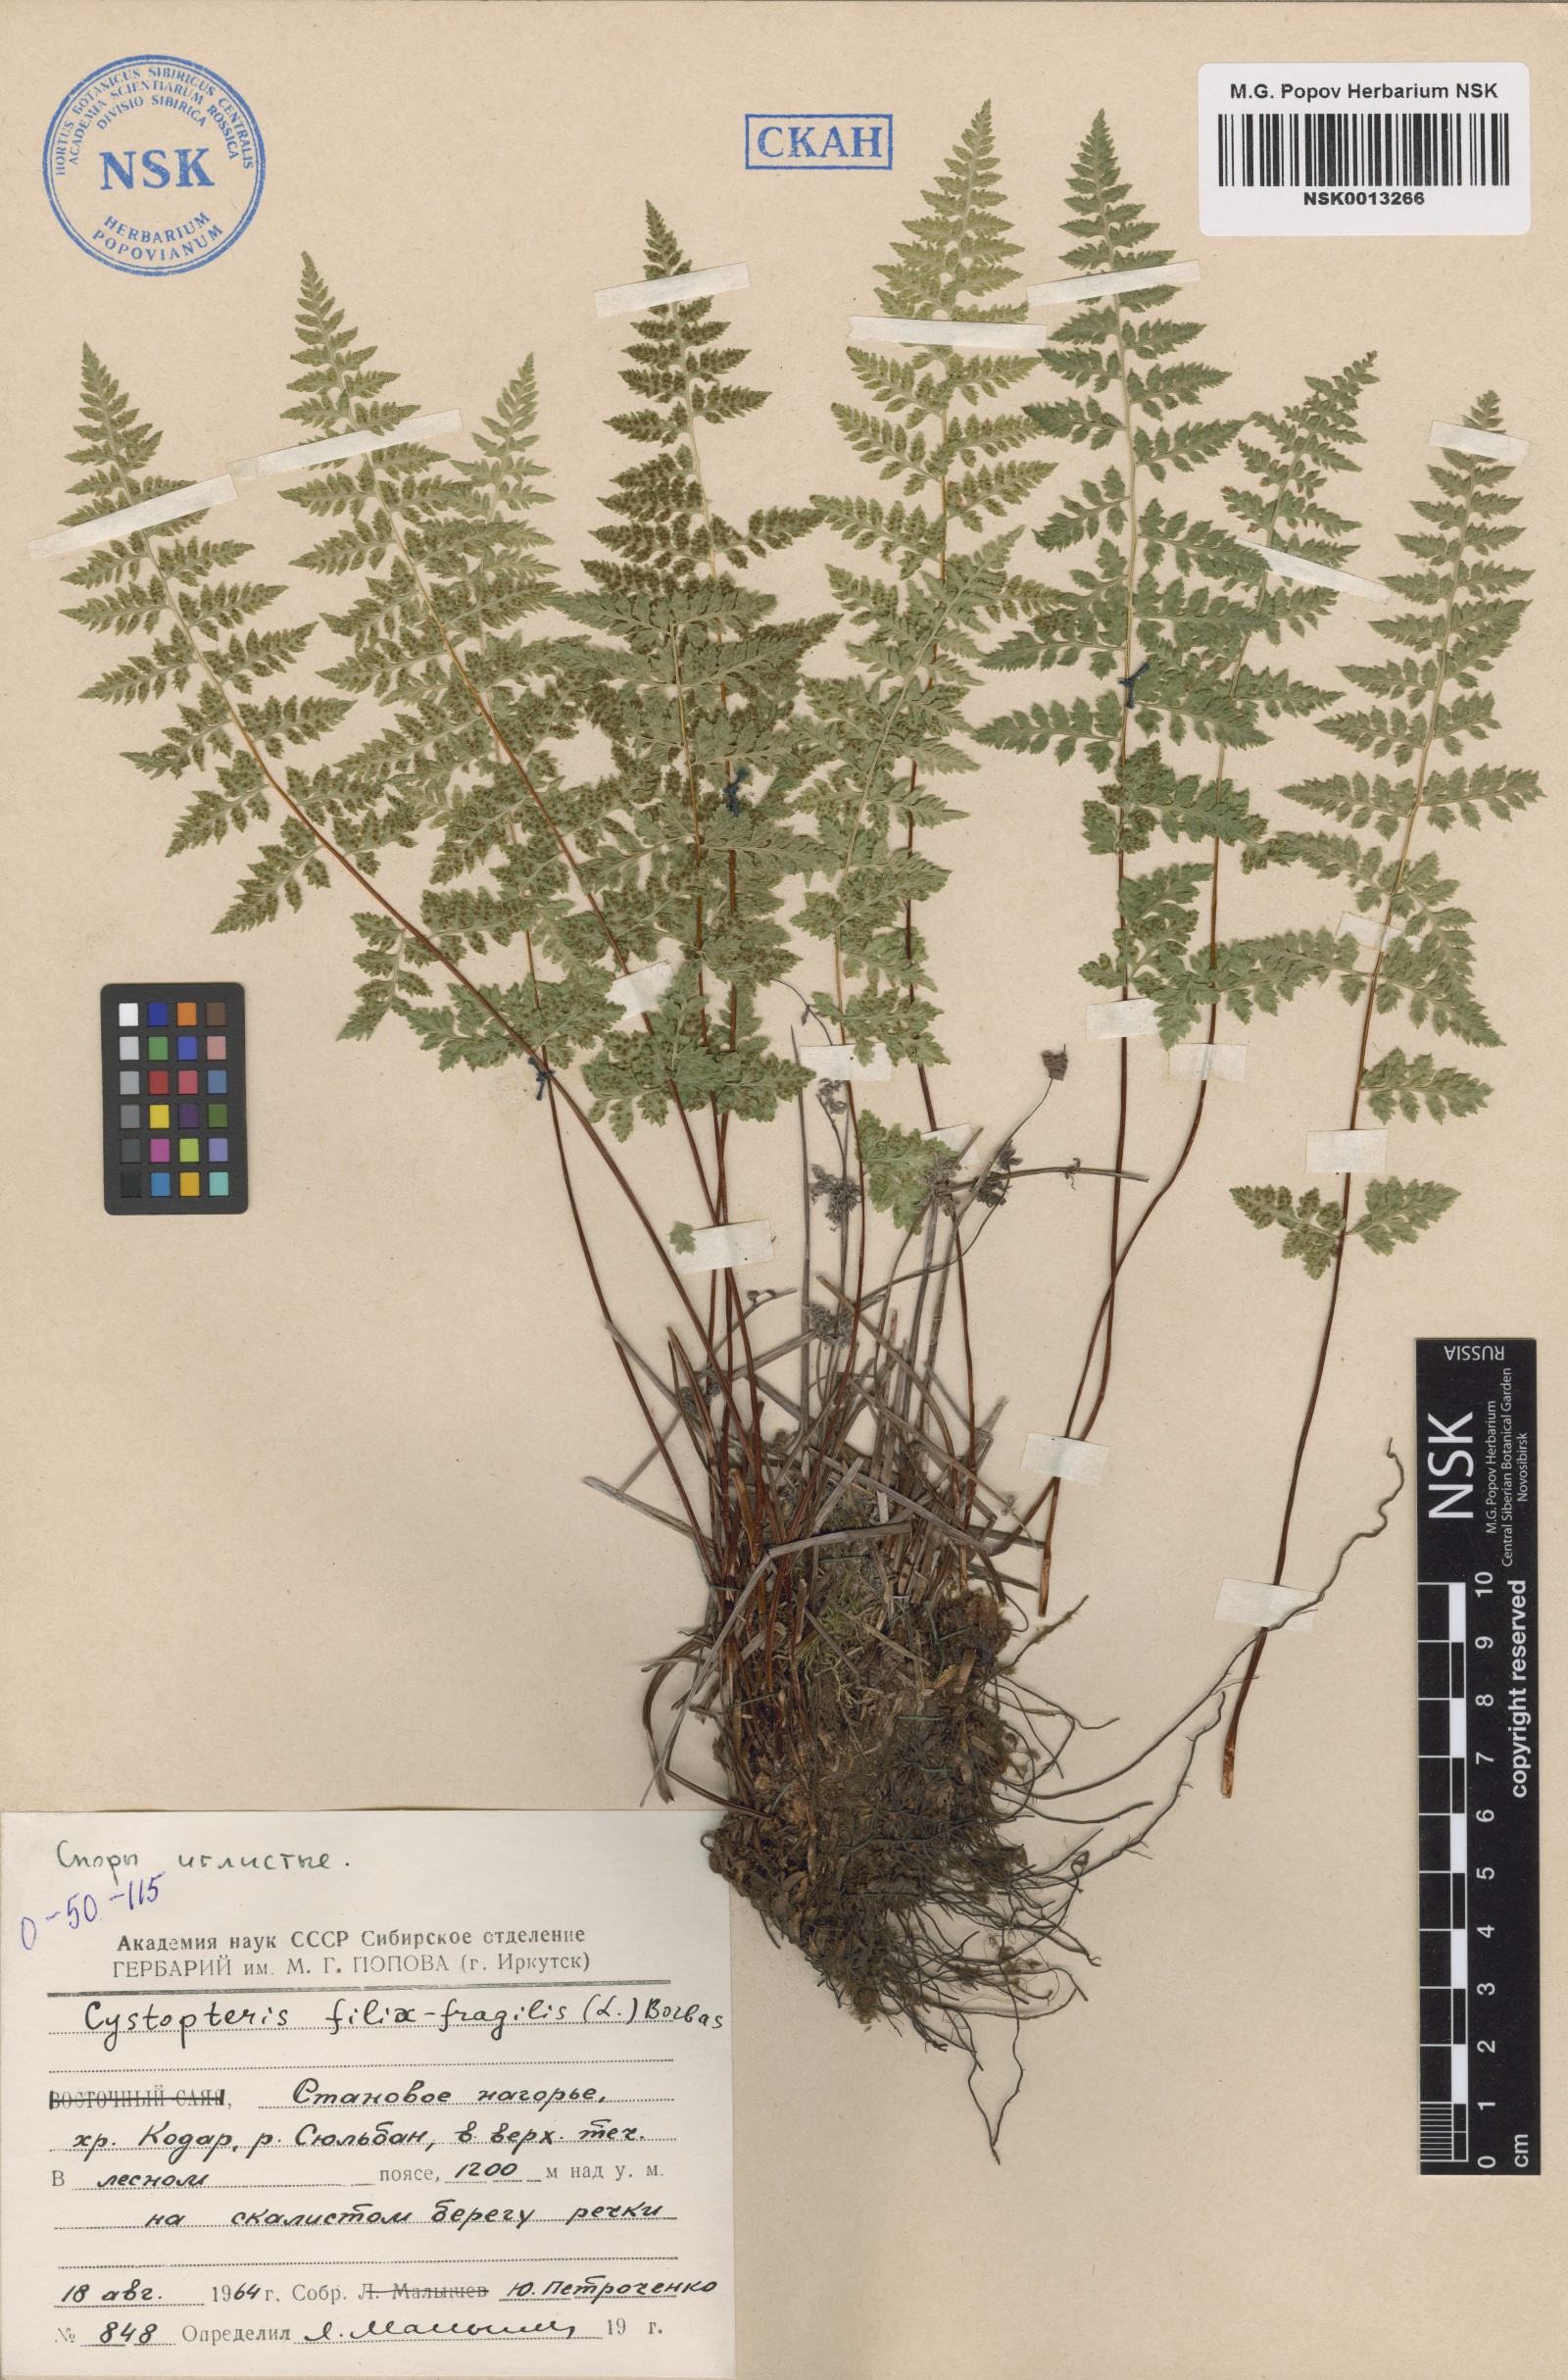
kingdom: Plantae
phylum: Tracheophyta
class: Polypodiopsida
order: Polypodiales
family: Cystopteridaceae
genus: Cystopteris
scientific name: Cystopteris fragilis
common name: Brittle bladder fern
